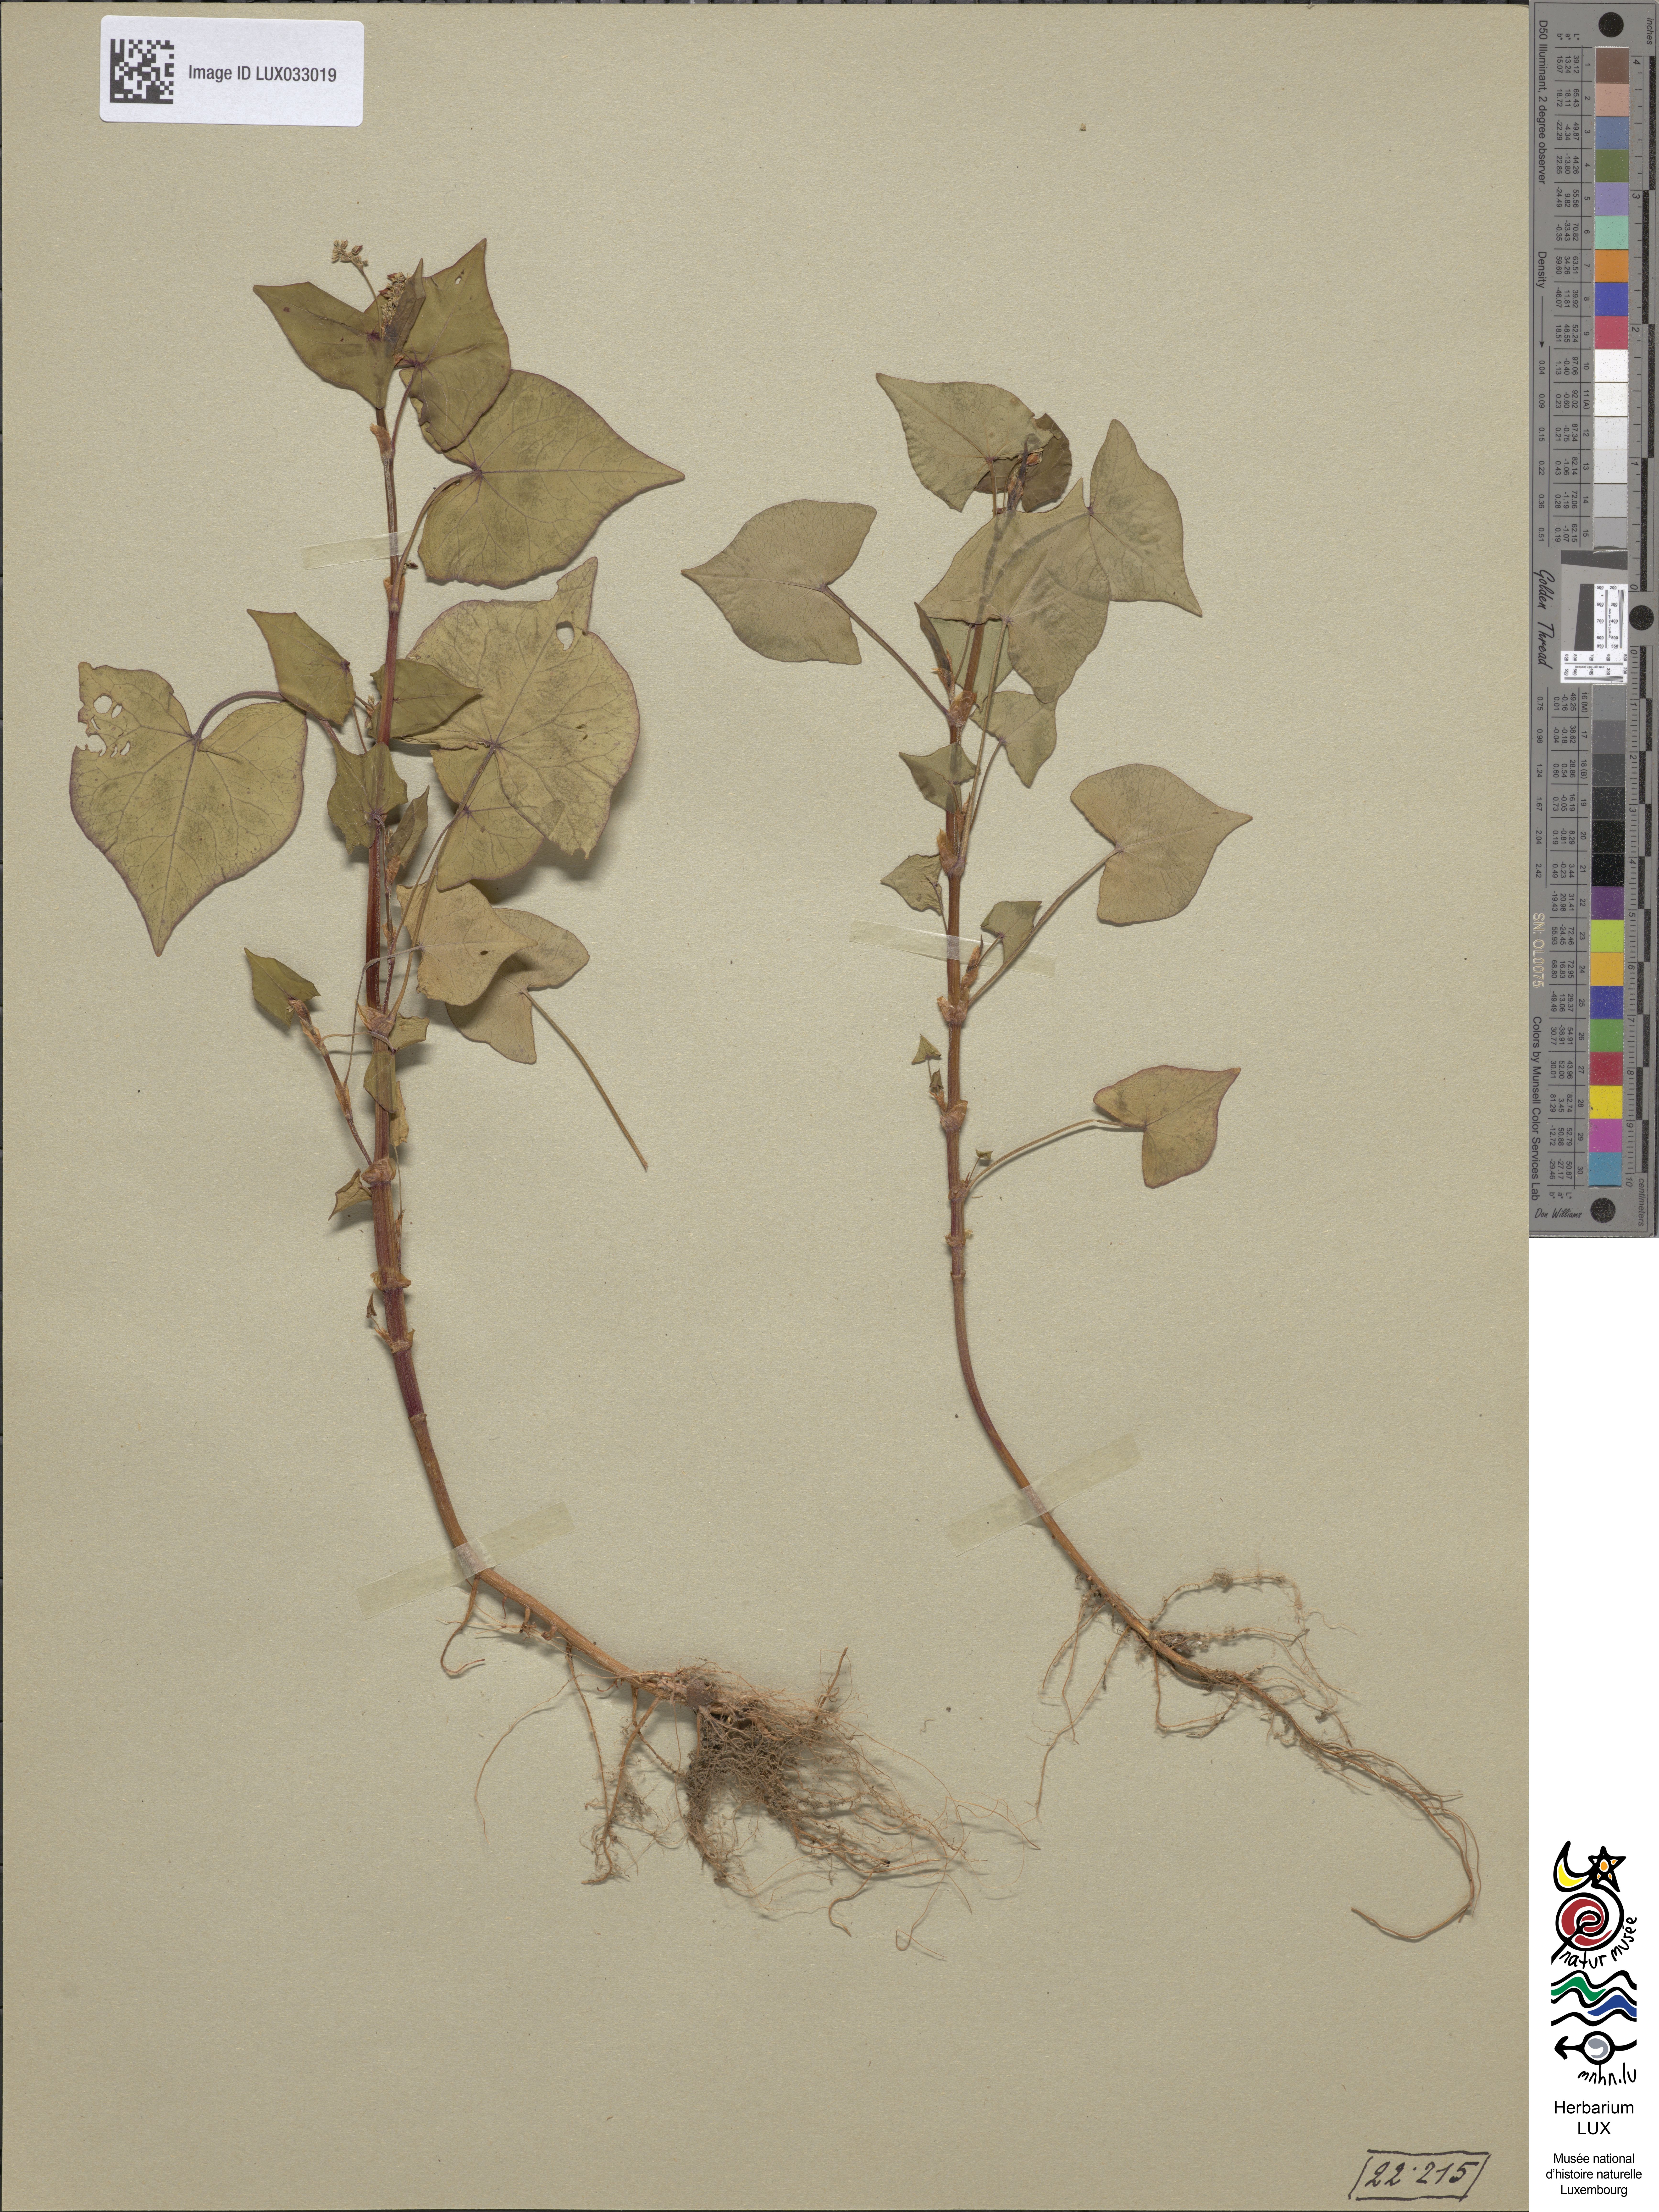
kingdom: Plantae
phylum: Tracheophyta
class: Magnoliopsida
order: Caryophyllales
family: Polygonaceae
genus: Fagopyrum
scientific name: Fagopyrum esculentum
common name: Buckwheat
